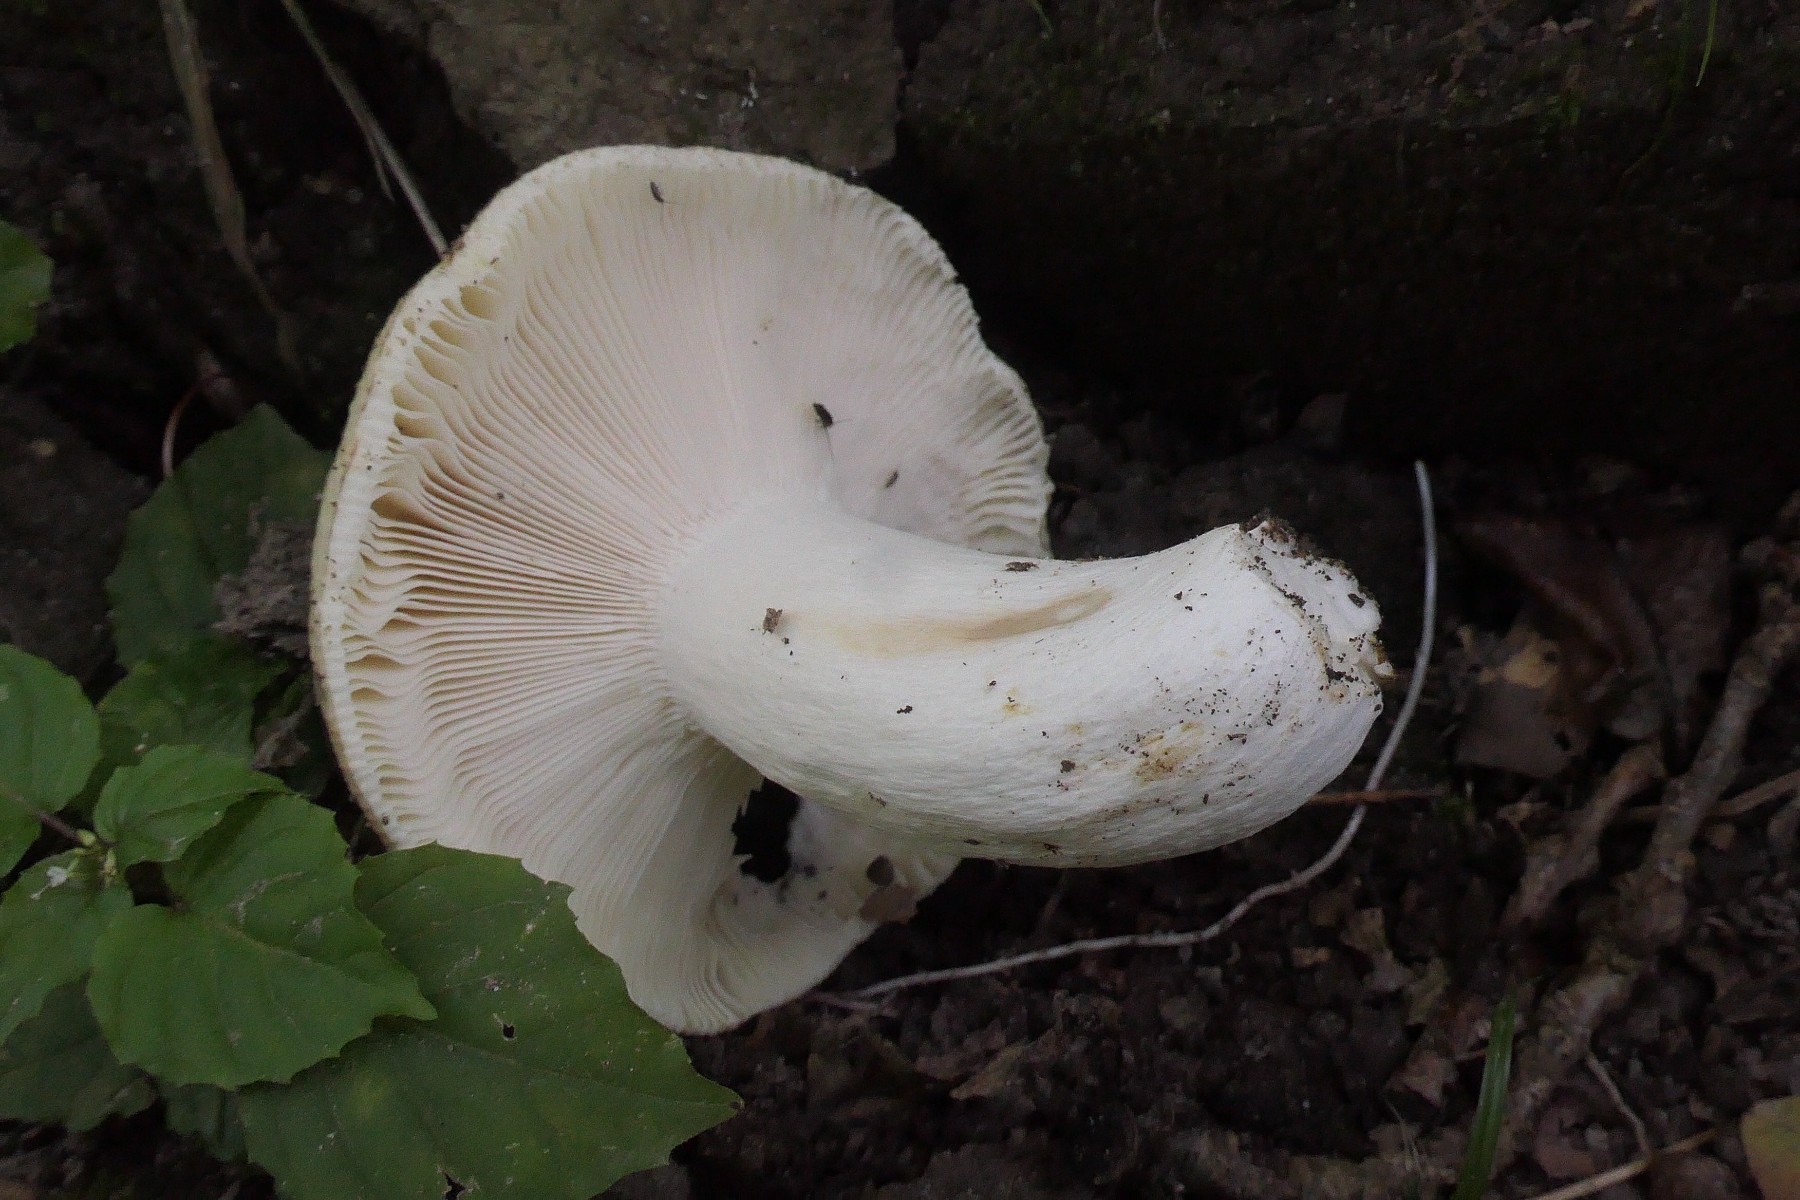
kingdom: Fungi
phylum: Basidiomycota
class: Agaricomycetes
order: Russulales
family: Russulaceae
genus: Russula
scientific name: Russula heterophylla
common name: gaffelbladet skørhat
